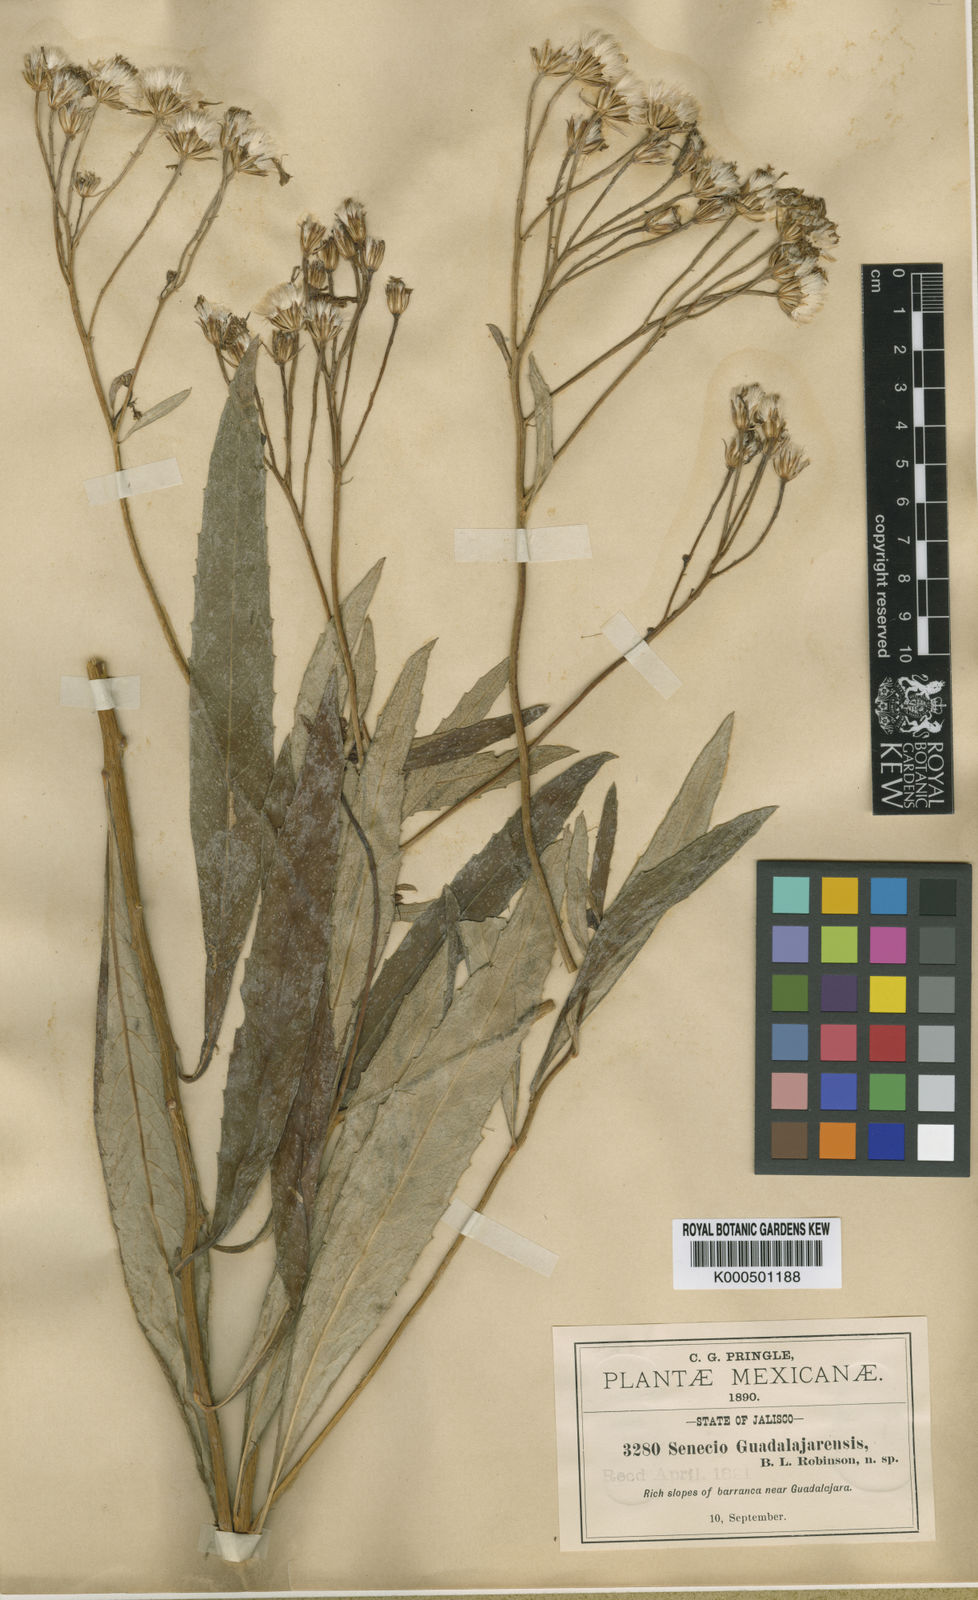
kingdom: Plantae
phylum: Tracheophyta
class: Magnoliopsida
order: Asterales
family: Asteraceae
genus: Roldana
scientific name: Roldana guadalajarensis
